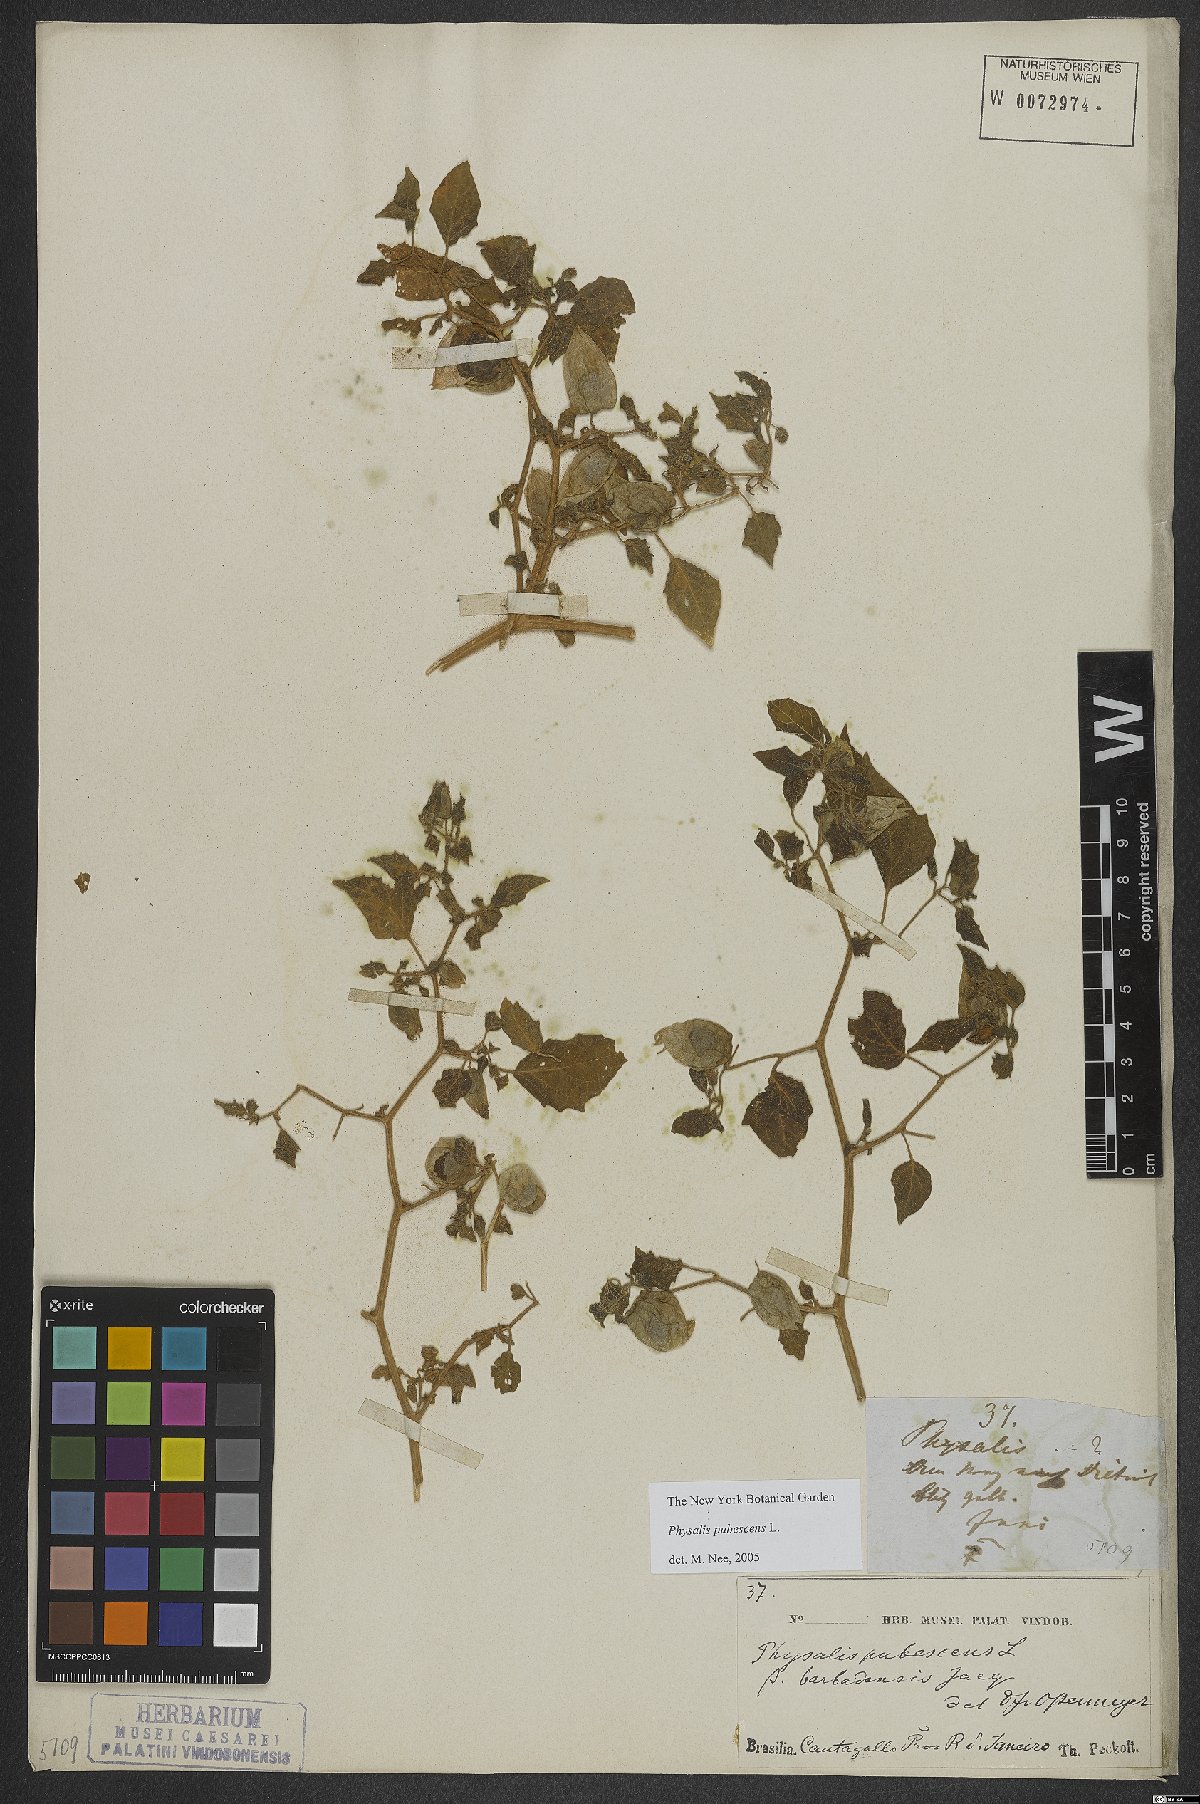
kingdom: Plantae
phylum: Tracheophyta
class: Magnoliopsida
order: Solanales
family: Solanaceae
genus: Physalis
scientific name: Physalis pubescens
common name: Downy ground-cherry
